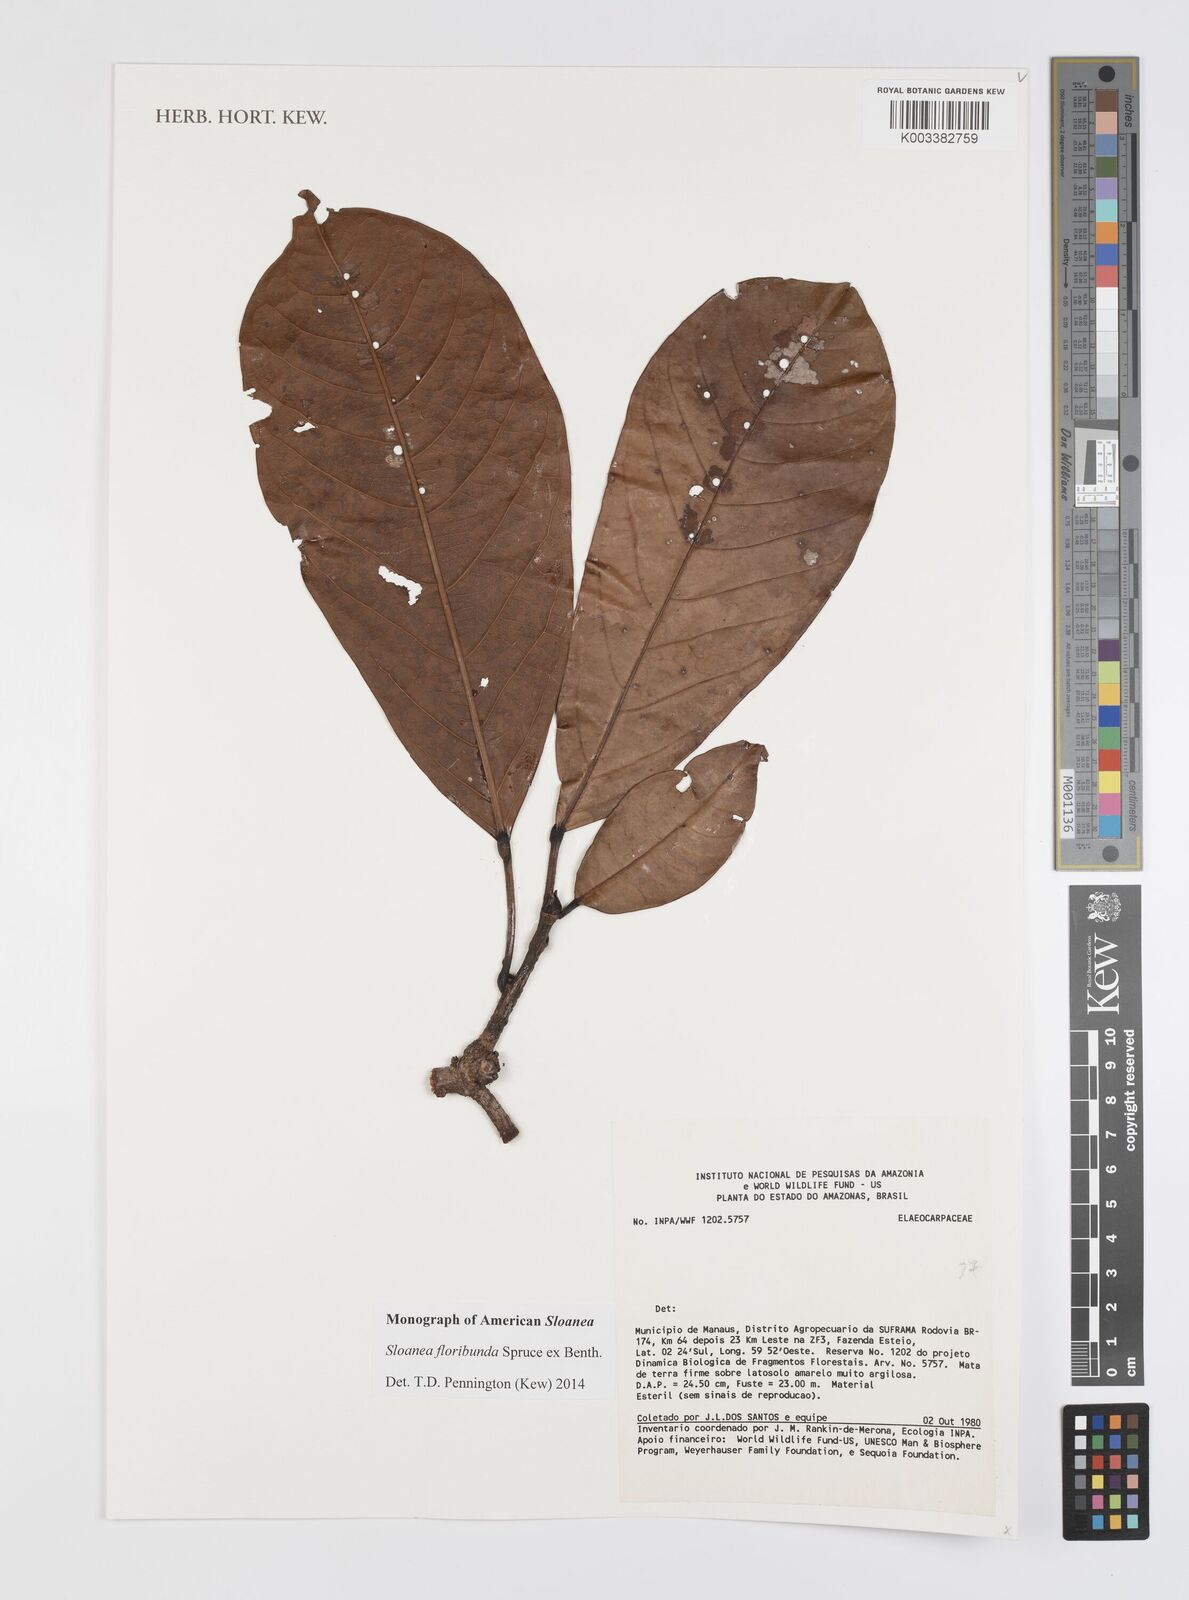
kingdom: Plantae
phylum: Tracheophyta
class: Magnoliopsida
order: Oxalidales
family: Elaeocarpaceae
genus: Sloanea
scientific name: Sloanea floribunda
